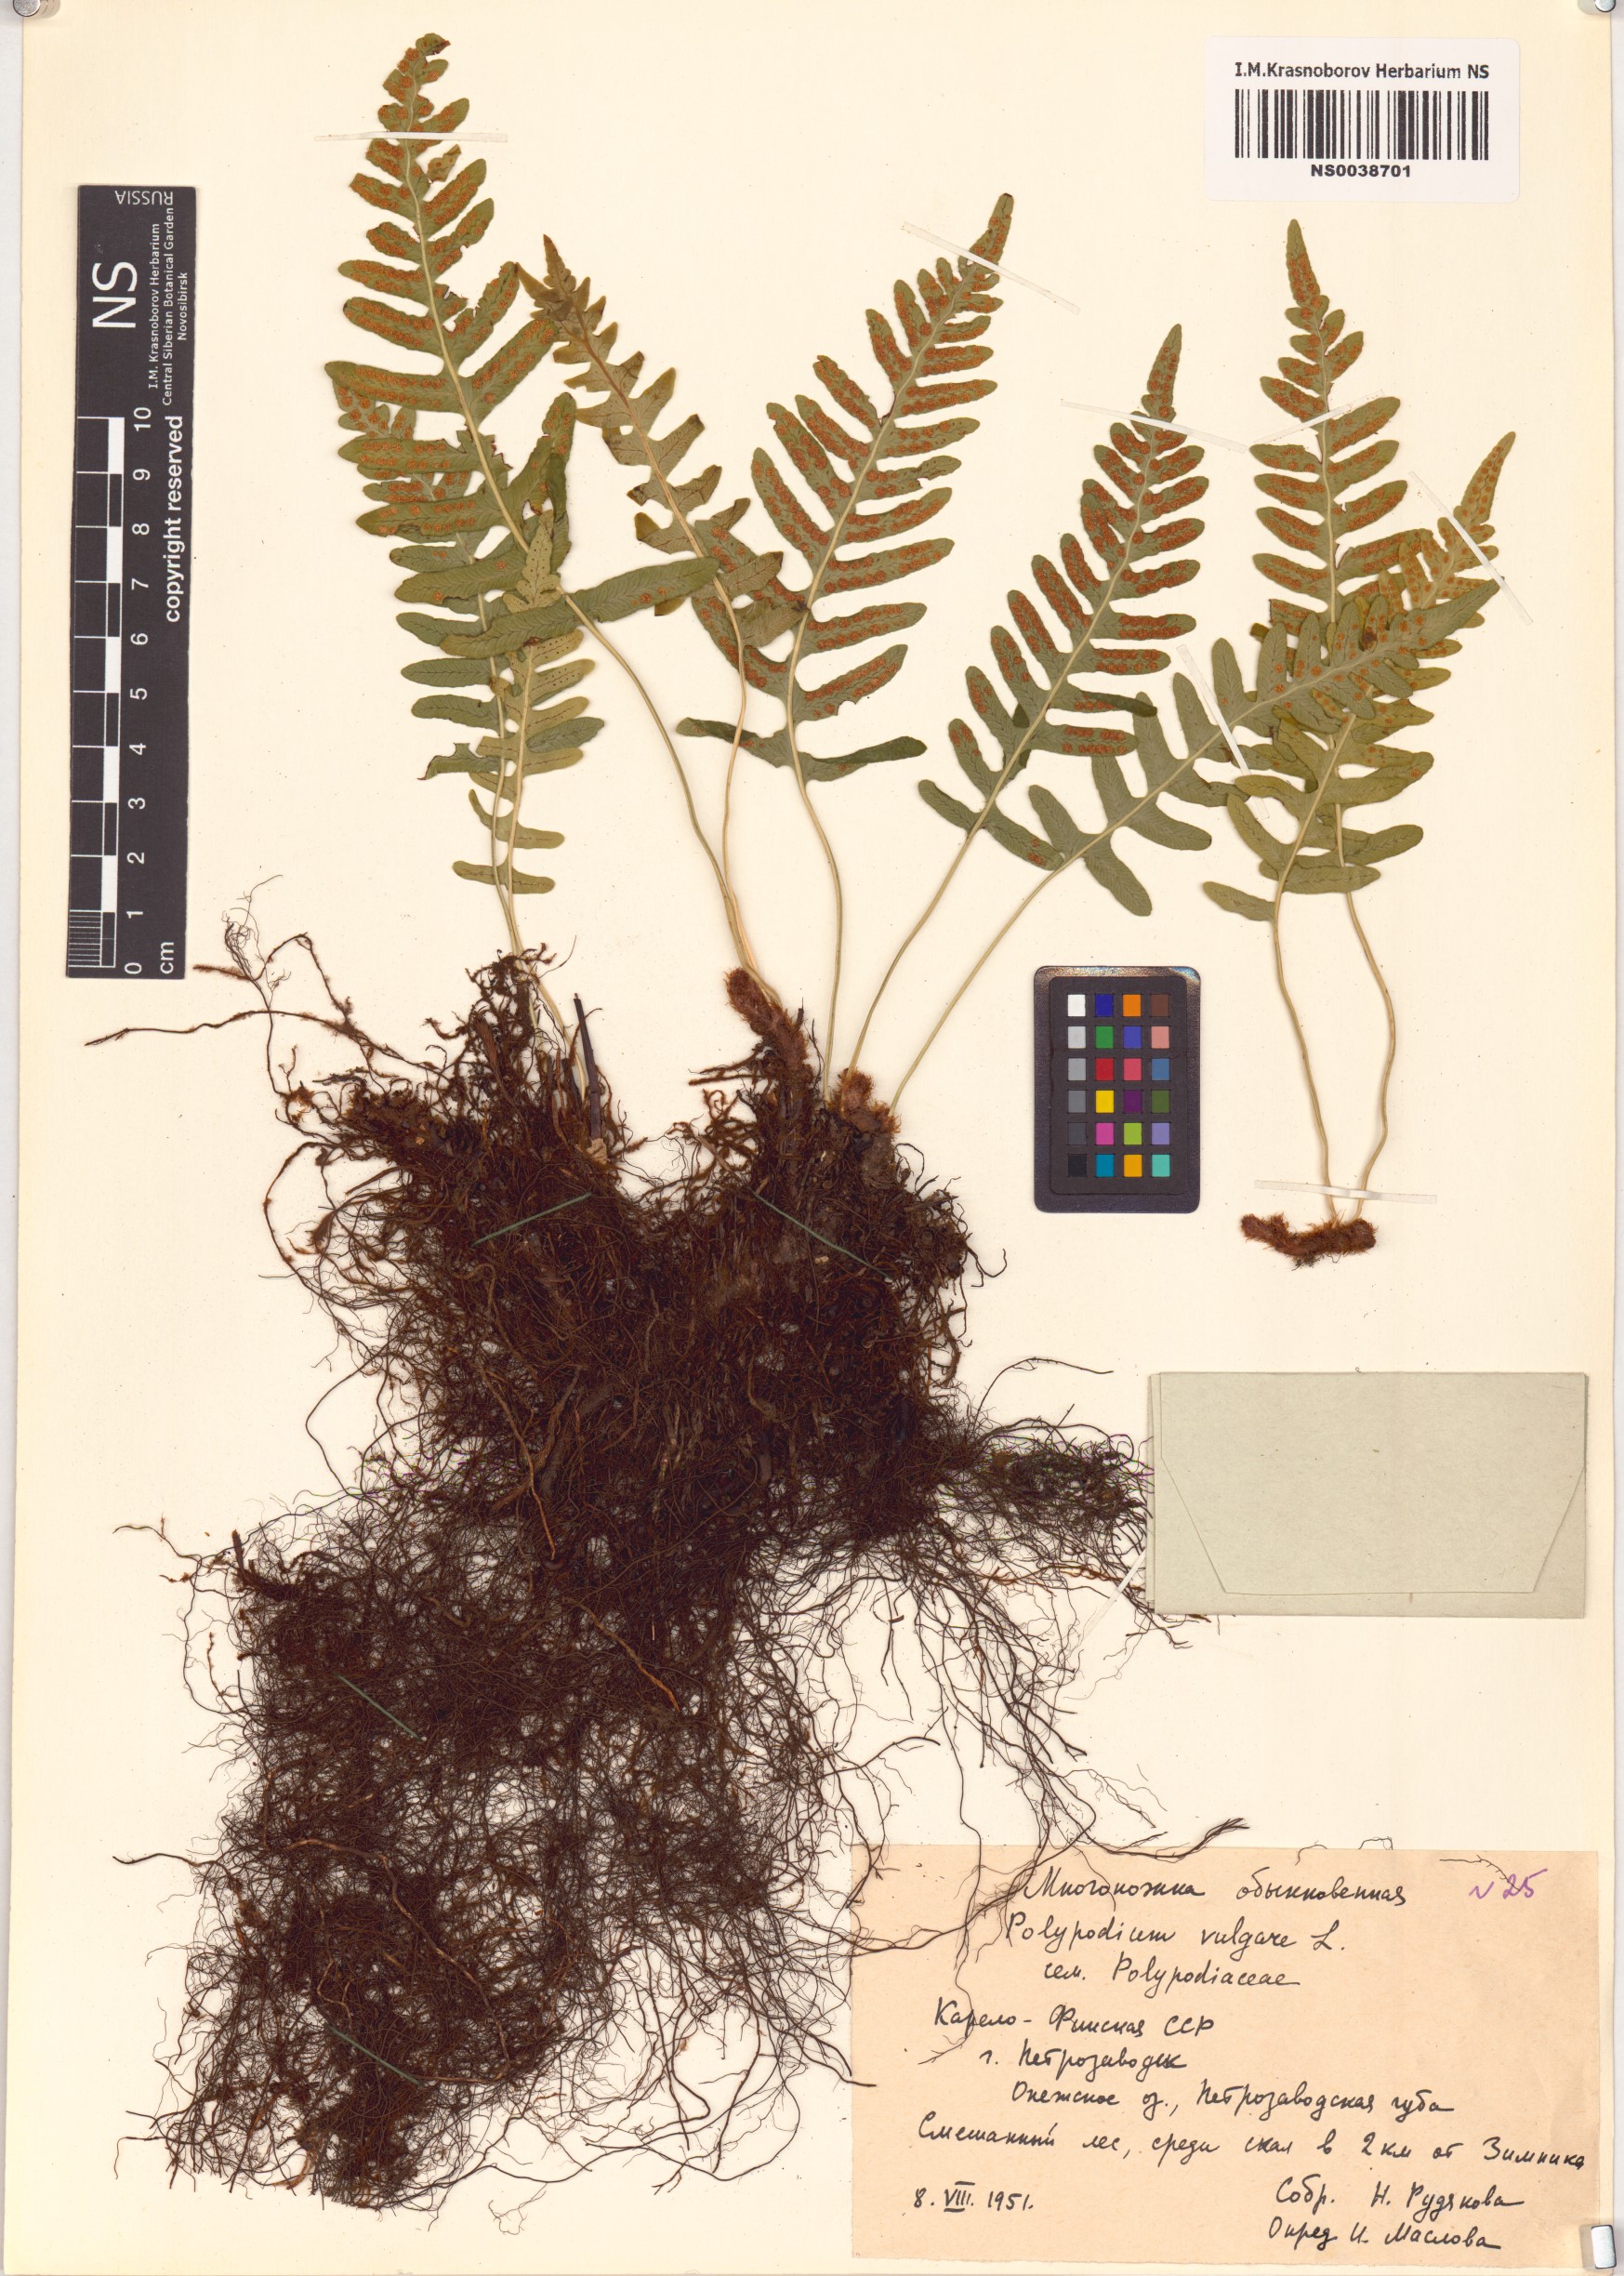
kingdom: Plantae
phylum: Tracheophyta
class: Polypodiopsida
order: Polypodiales
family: Polypodiaceae
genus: Polypodium
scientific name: Polypodium vulgare
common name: Common polypody
